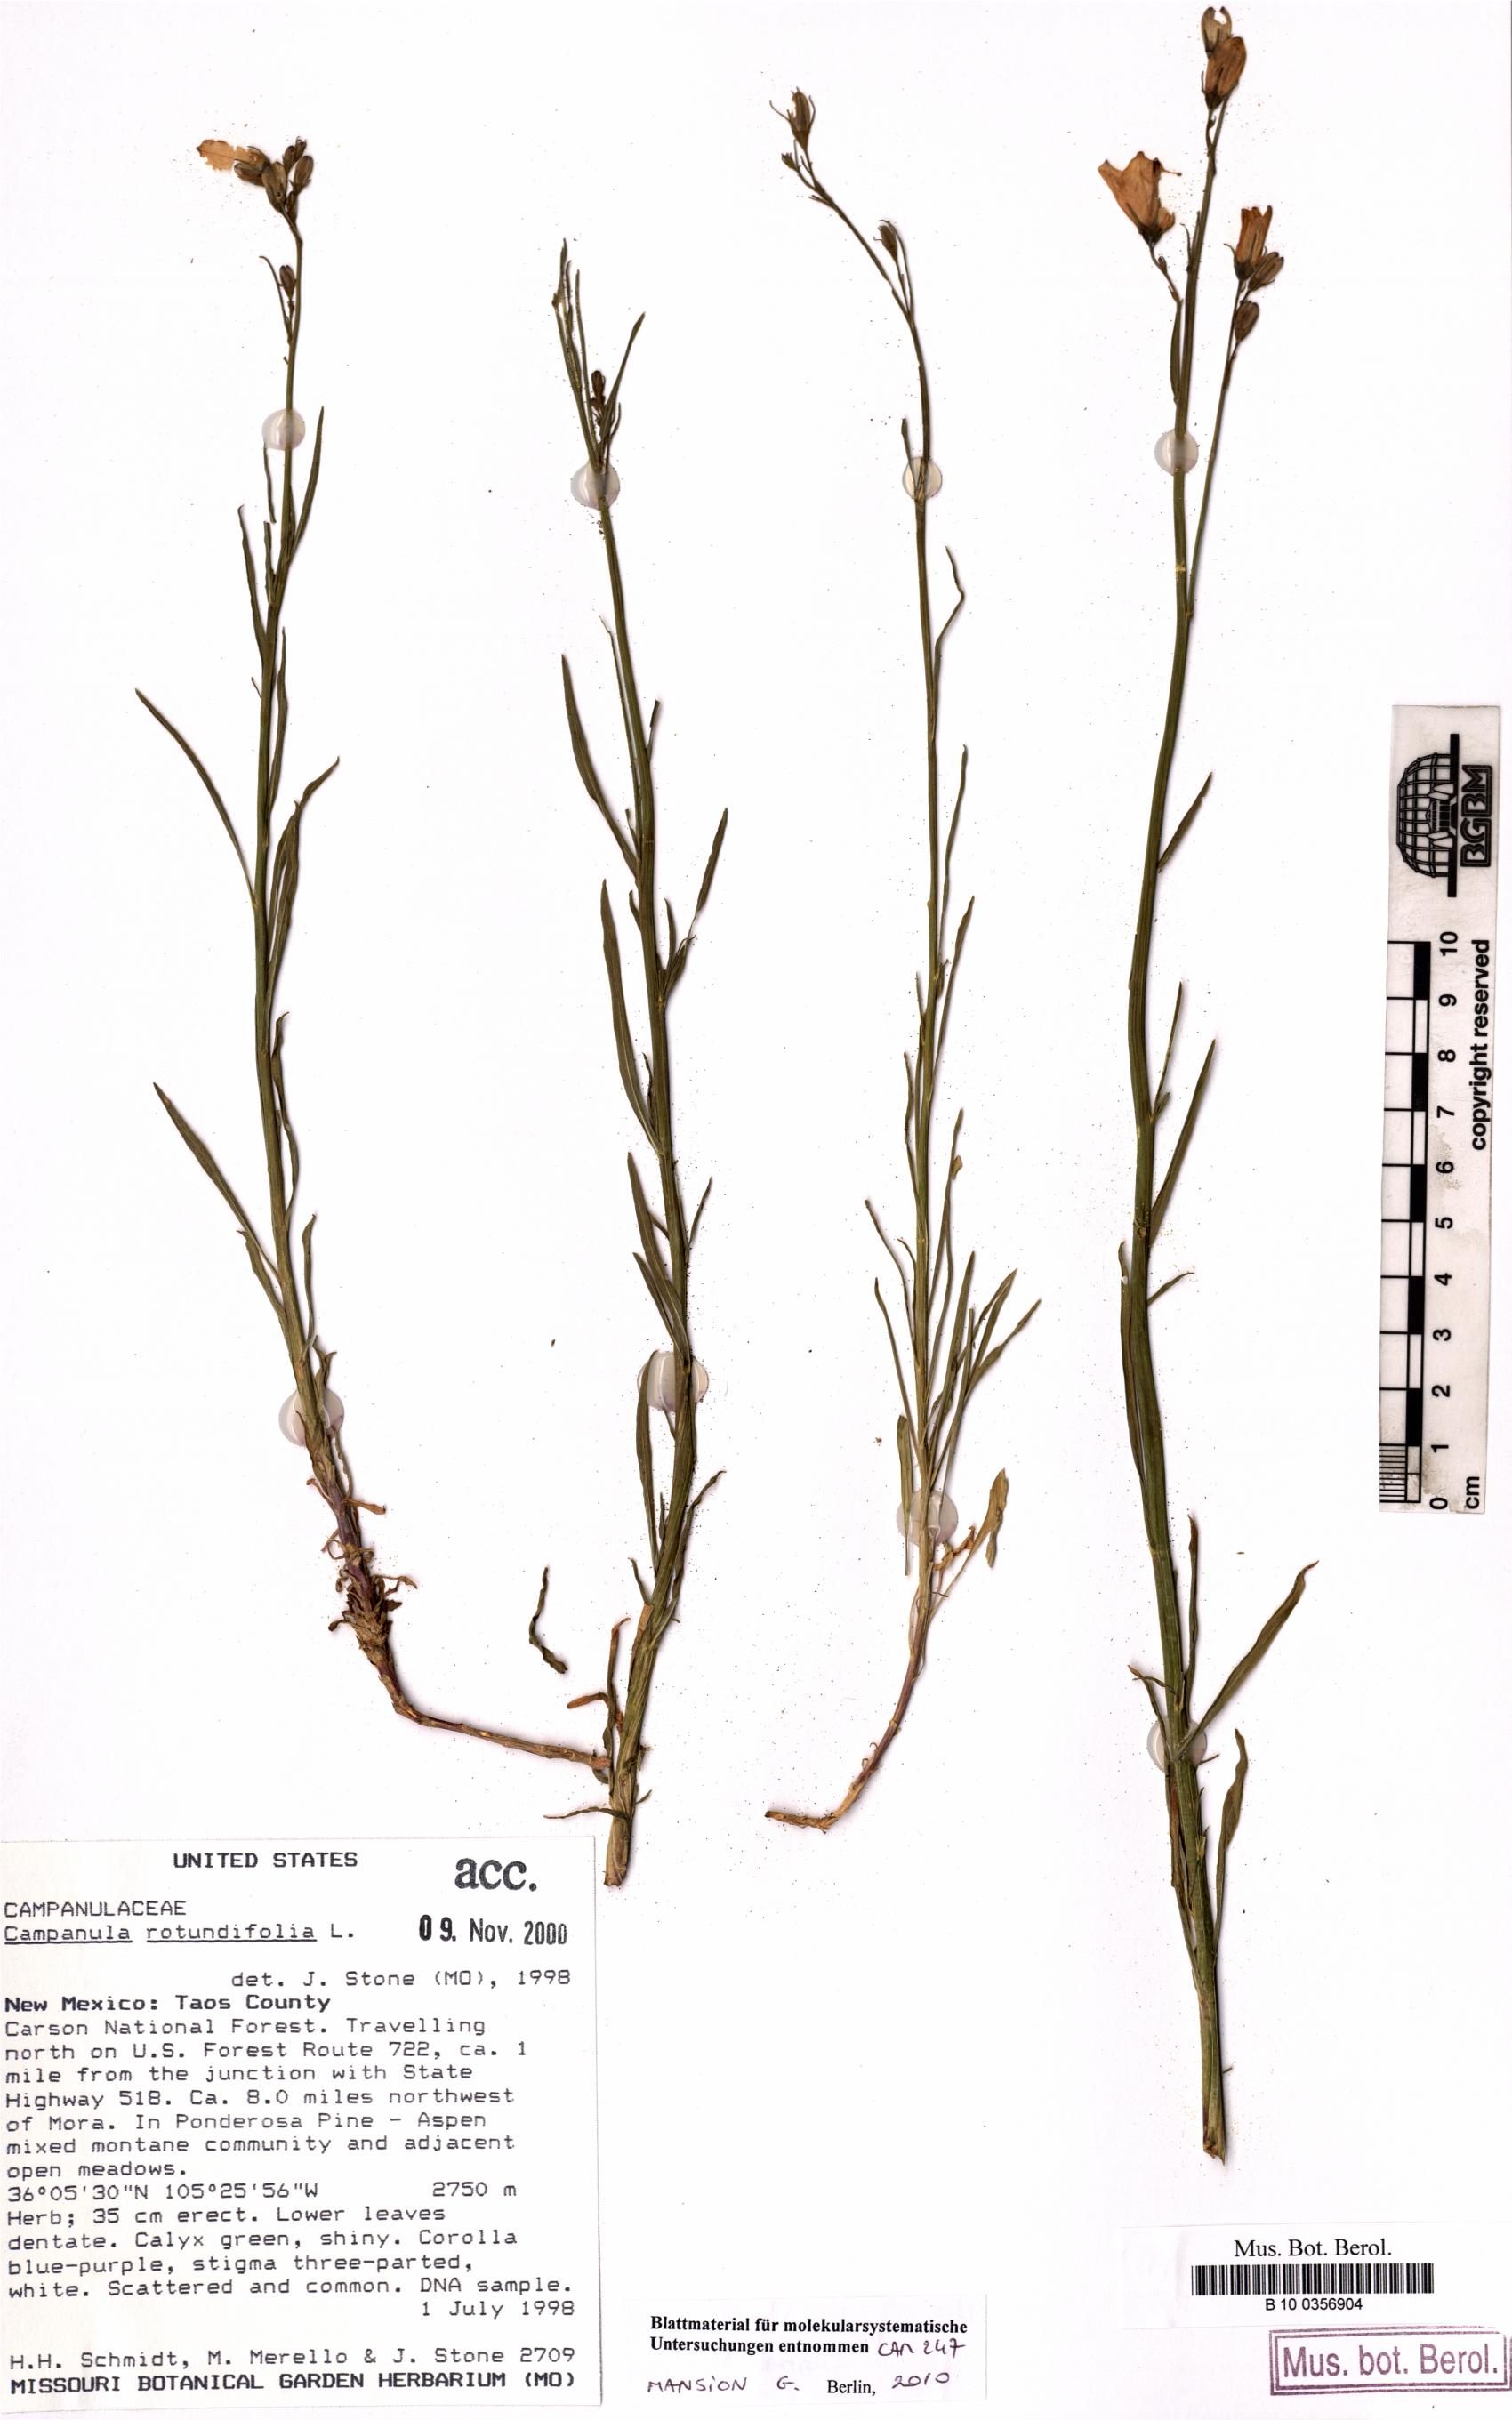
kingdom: Plantae
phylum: Tracheophyta
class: Magnoliopsida
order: Asterales
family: Campanulaceae
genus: Campanula
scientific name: Campanula rotundifolia
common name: Harebell
